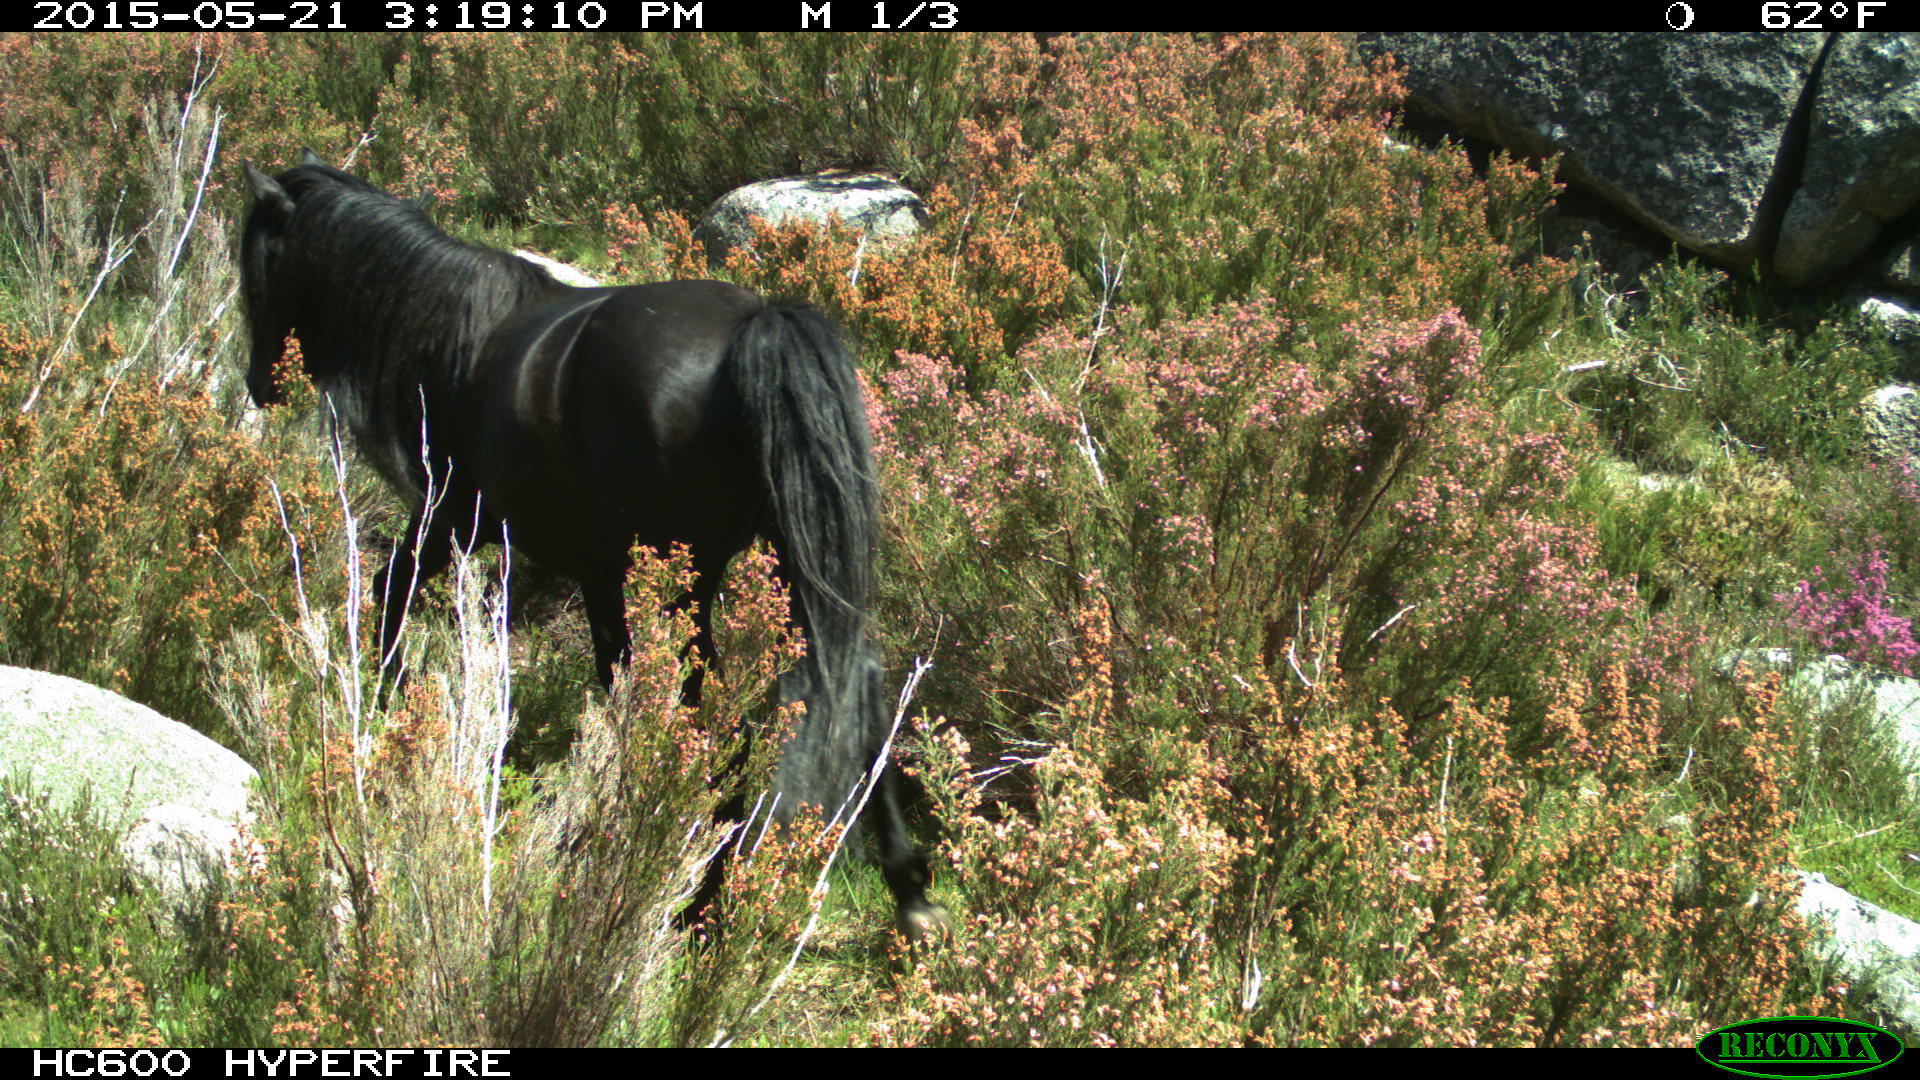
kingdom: Animalia
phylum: Chordata
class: Mammalia
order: Perissodactyla
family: Equidae
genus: Equus
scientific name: Equus caballus
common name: Horse
